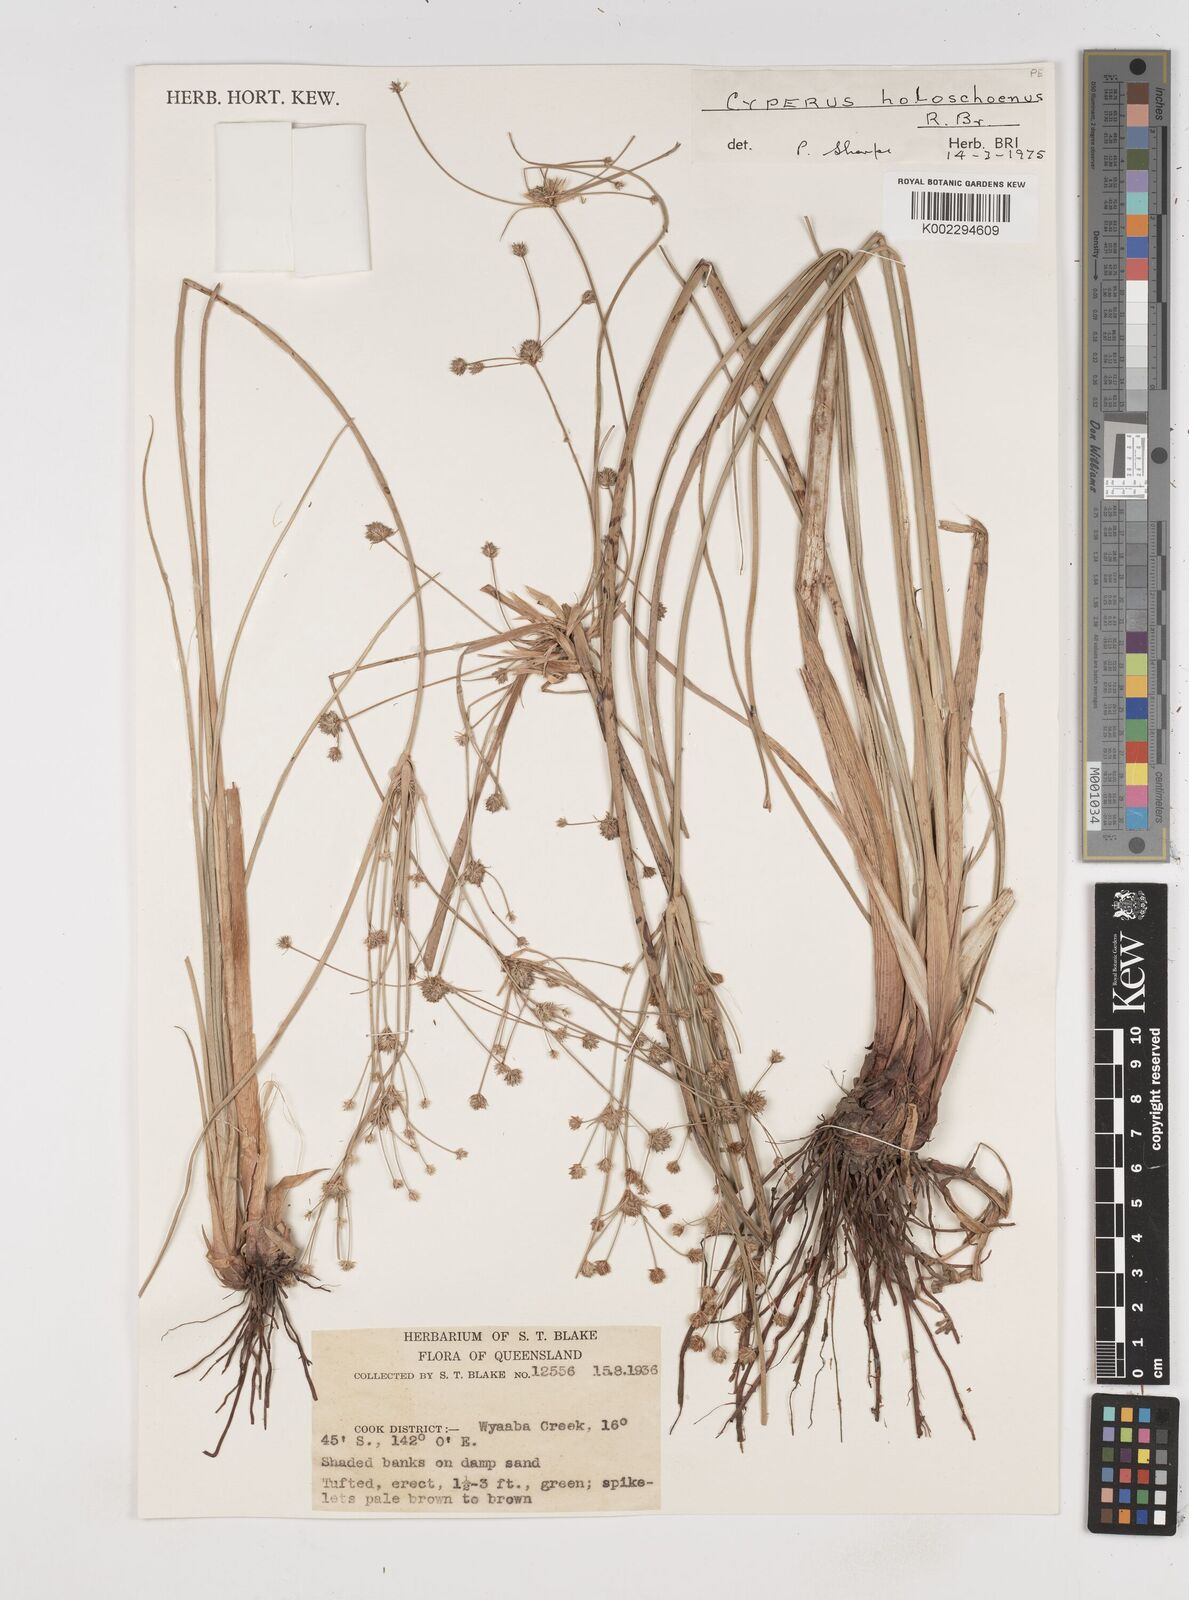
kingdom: Plantae
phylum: Tracheophyta
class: Liliopsida
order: Poales
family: Cyperaceae
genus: Cyperus
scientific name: Cyperus holoschoenus
